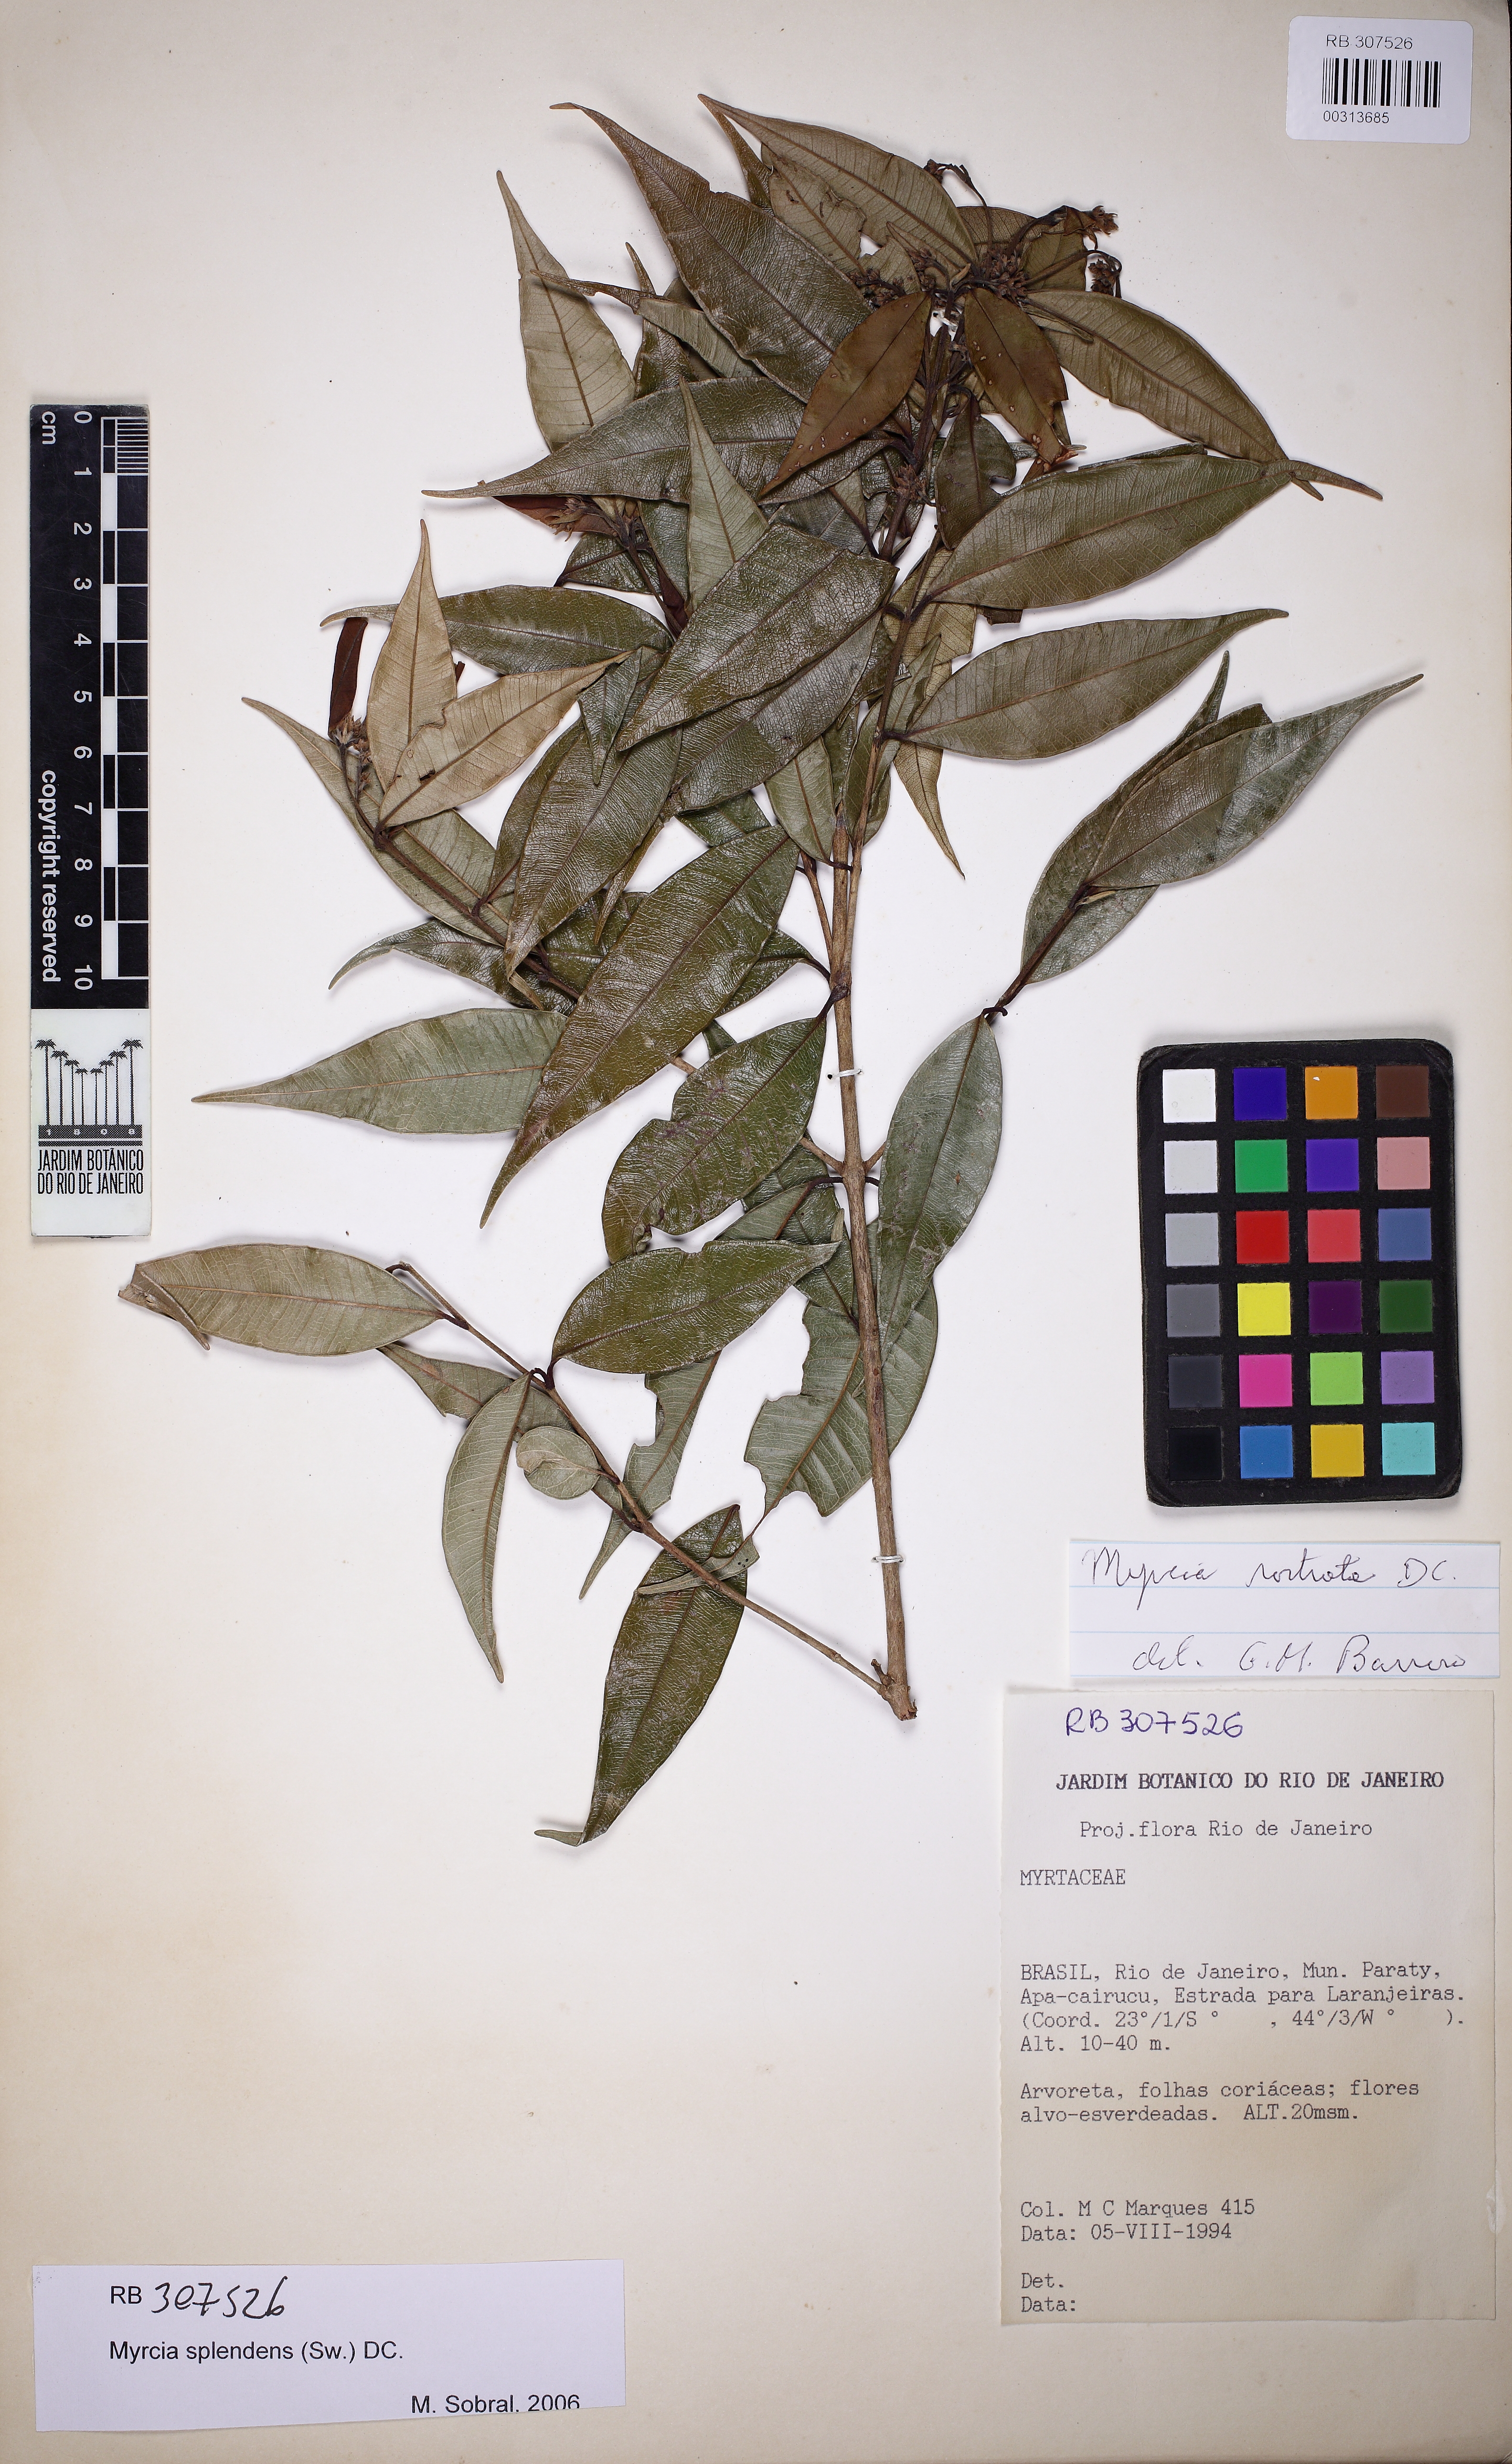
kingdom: Plantae
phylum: Tracheophyta
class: Magnoliopsida
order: Myrtales
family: Myrtaceae
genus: Myrcia
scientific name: Myrcia splendens
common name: Surinam cherry
